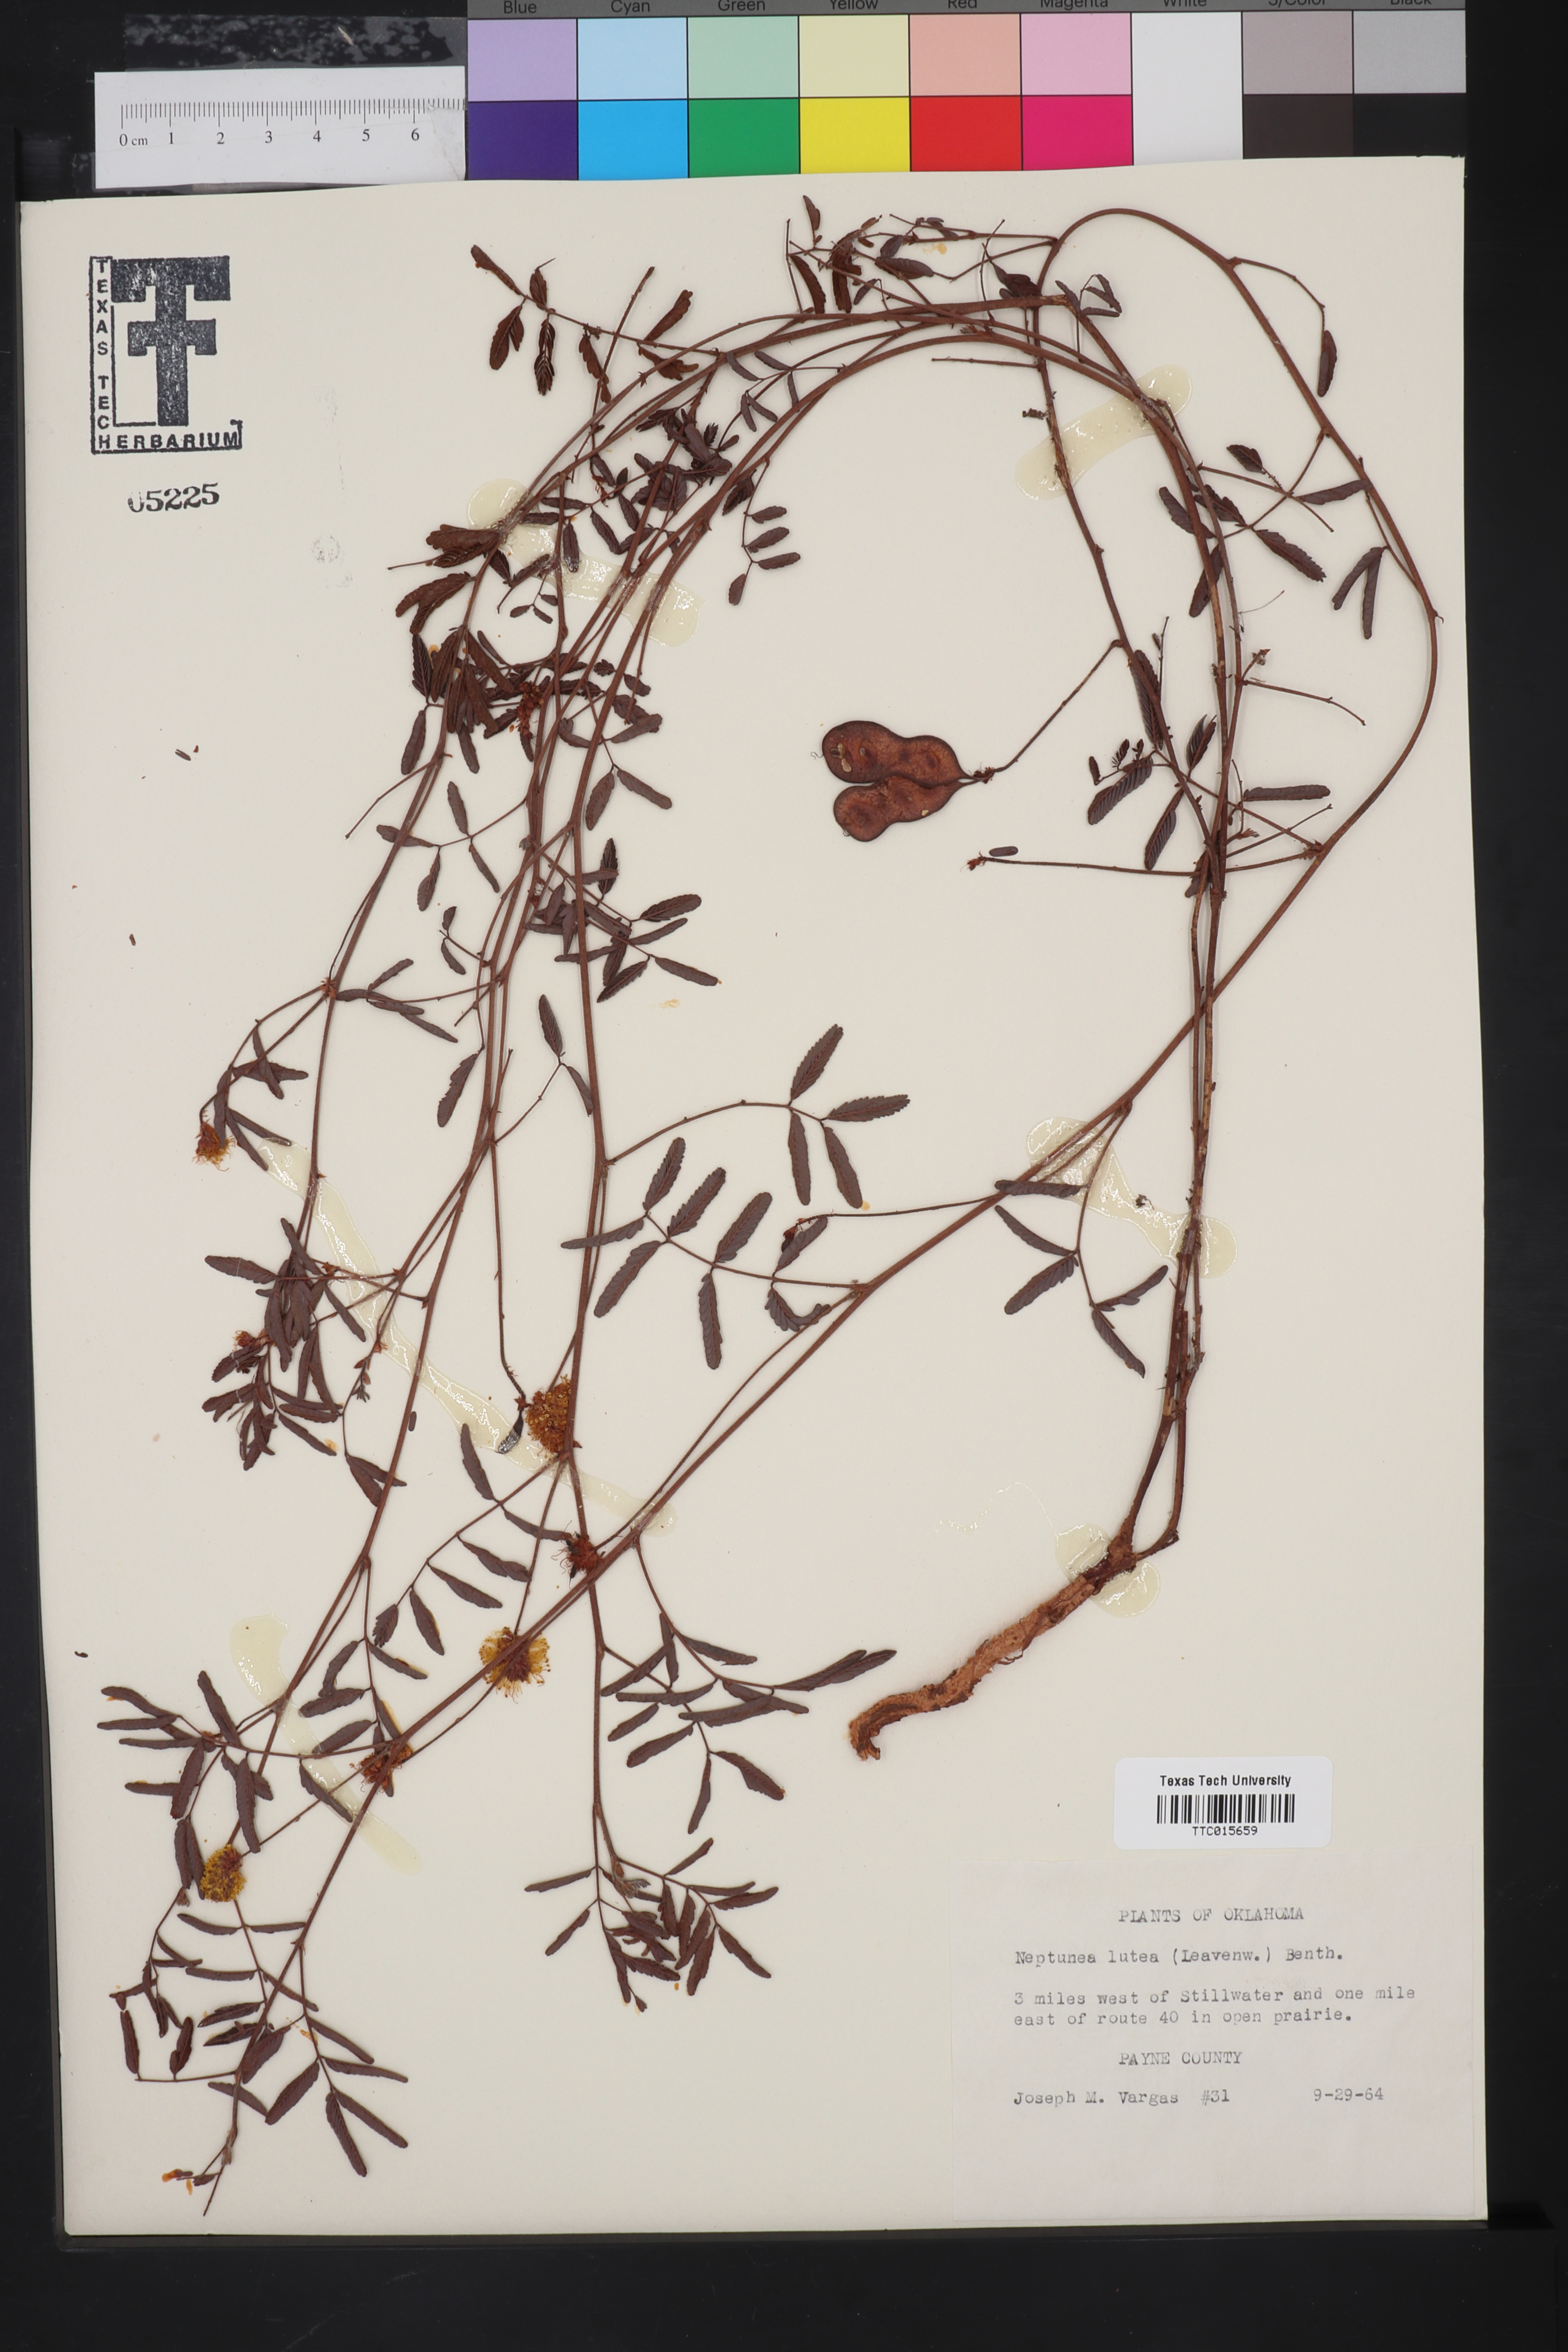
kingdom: Plantae
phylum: Tracheophyta
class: Magnoliopsida
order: Fabales
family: Fabaceae
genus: Neptunia
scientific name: Neptunia lutea
